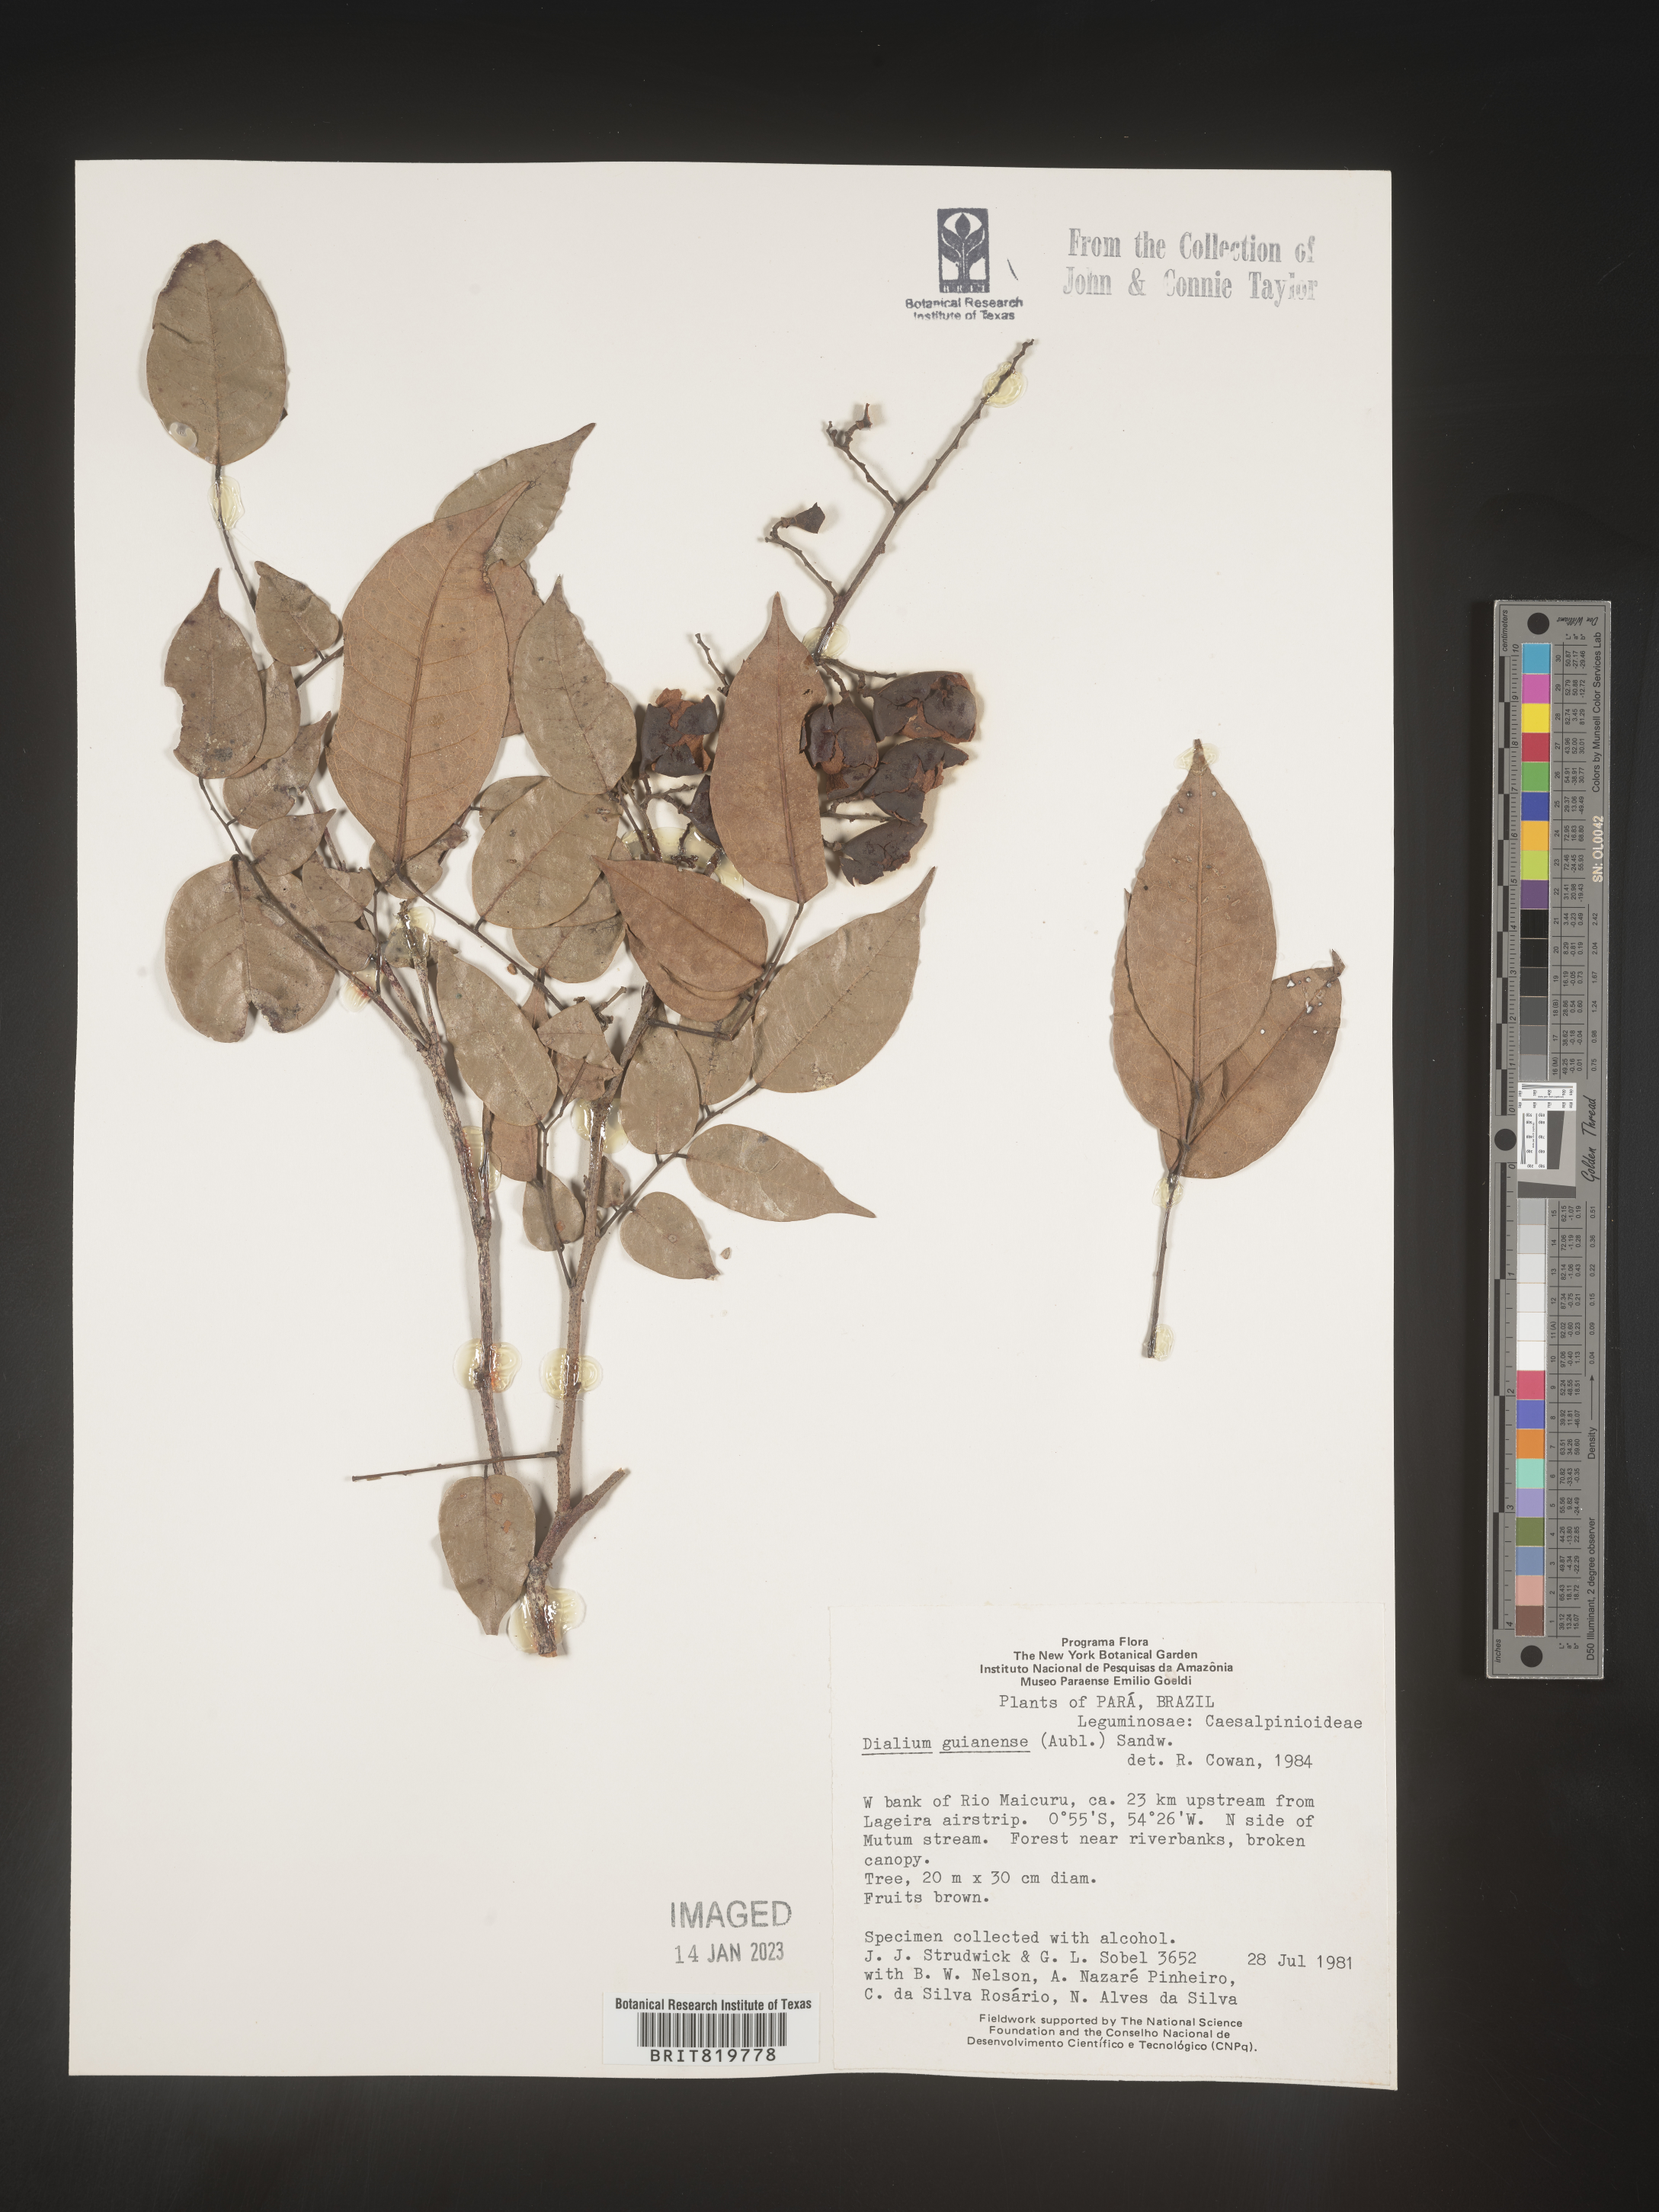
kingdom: Plantae
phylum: Tracheophyta
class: Magnoliopsida
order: Fabales
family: Fabaceae
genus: Dialium
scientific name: Dialium
